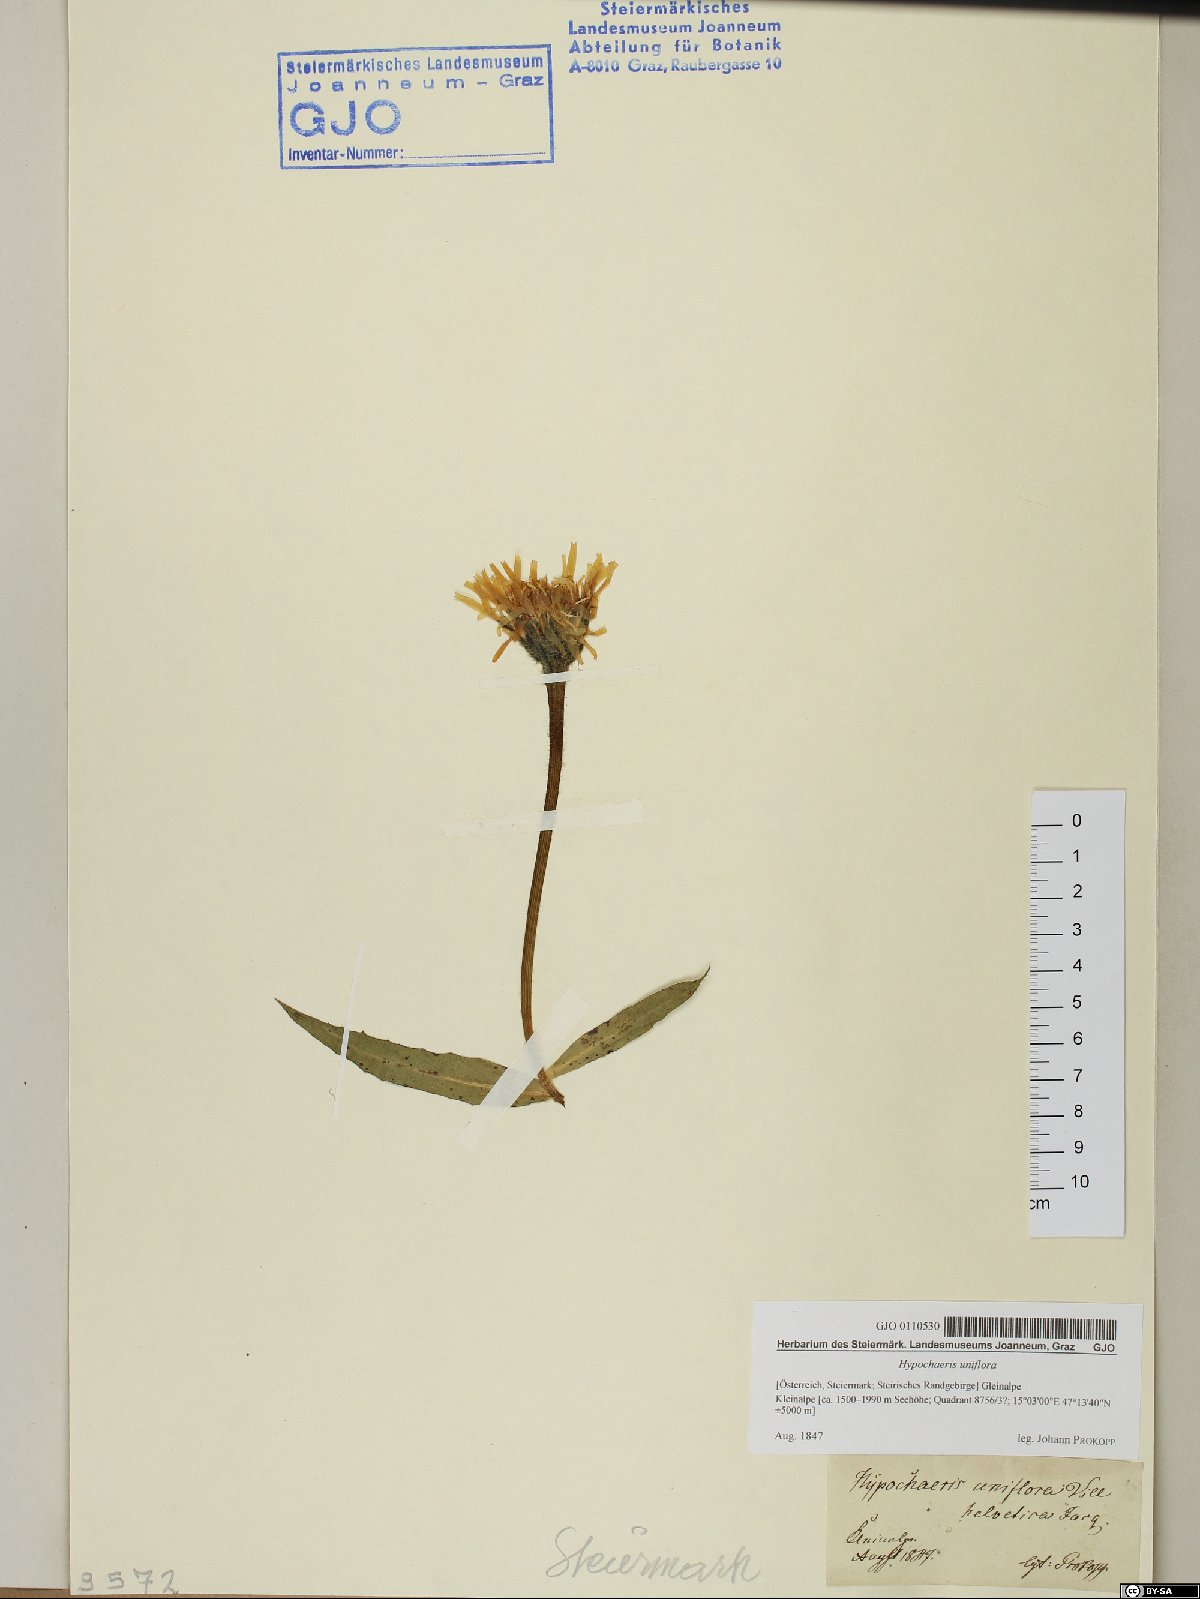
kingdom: Plantae
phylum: Tracheophyta
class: Magnoliopsida
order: Asterales
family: Asteraceae
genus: Trommsdorffia
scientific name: Trommsdorffia uniflora
